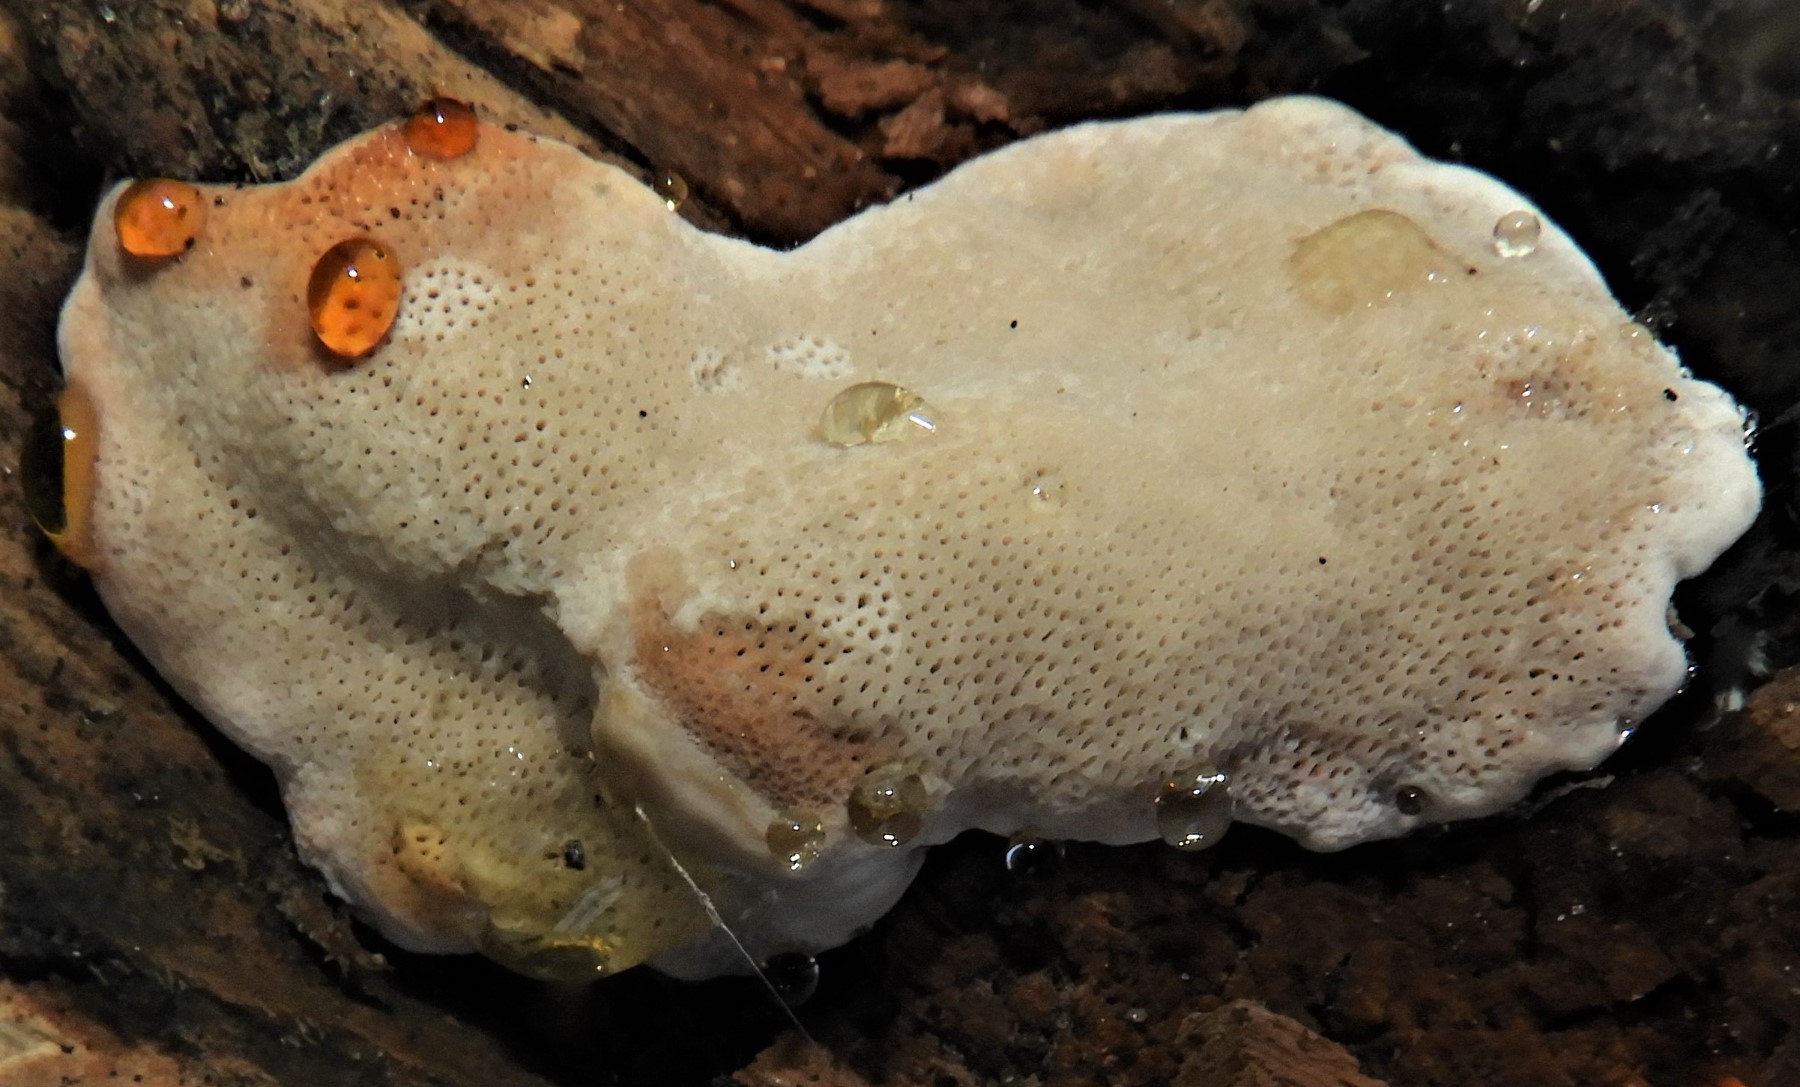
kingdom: Fungi
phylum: Basidiomycota
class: Agaricomycetes
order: Polyporales
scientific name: Polyporales
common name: poresvampordenen
